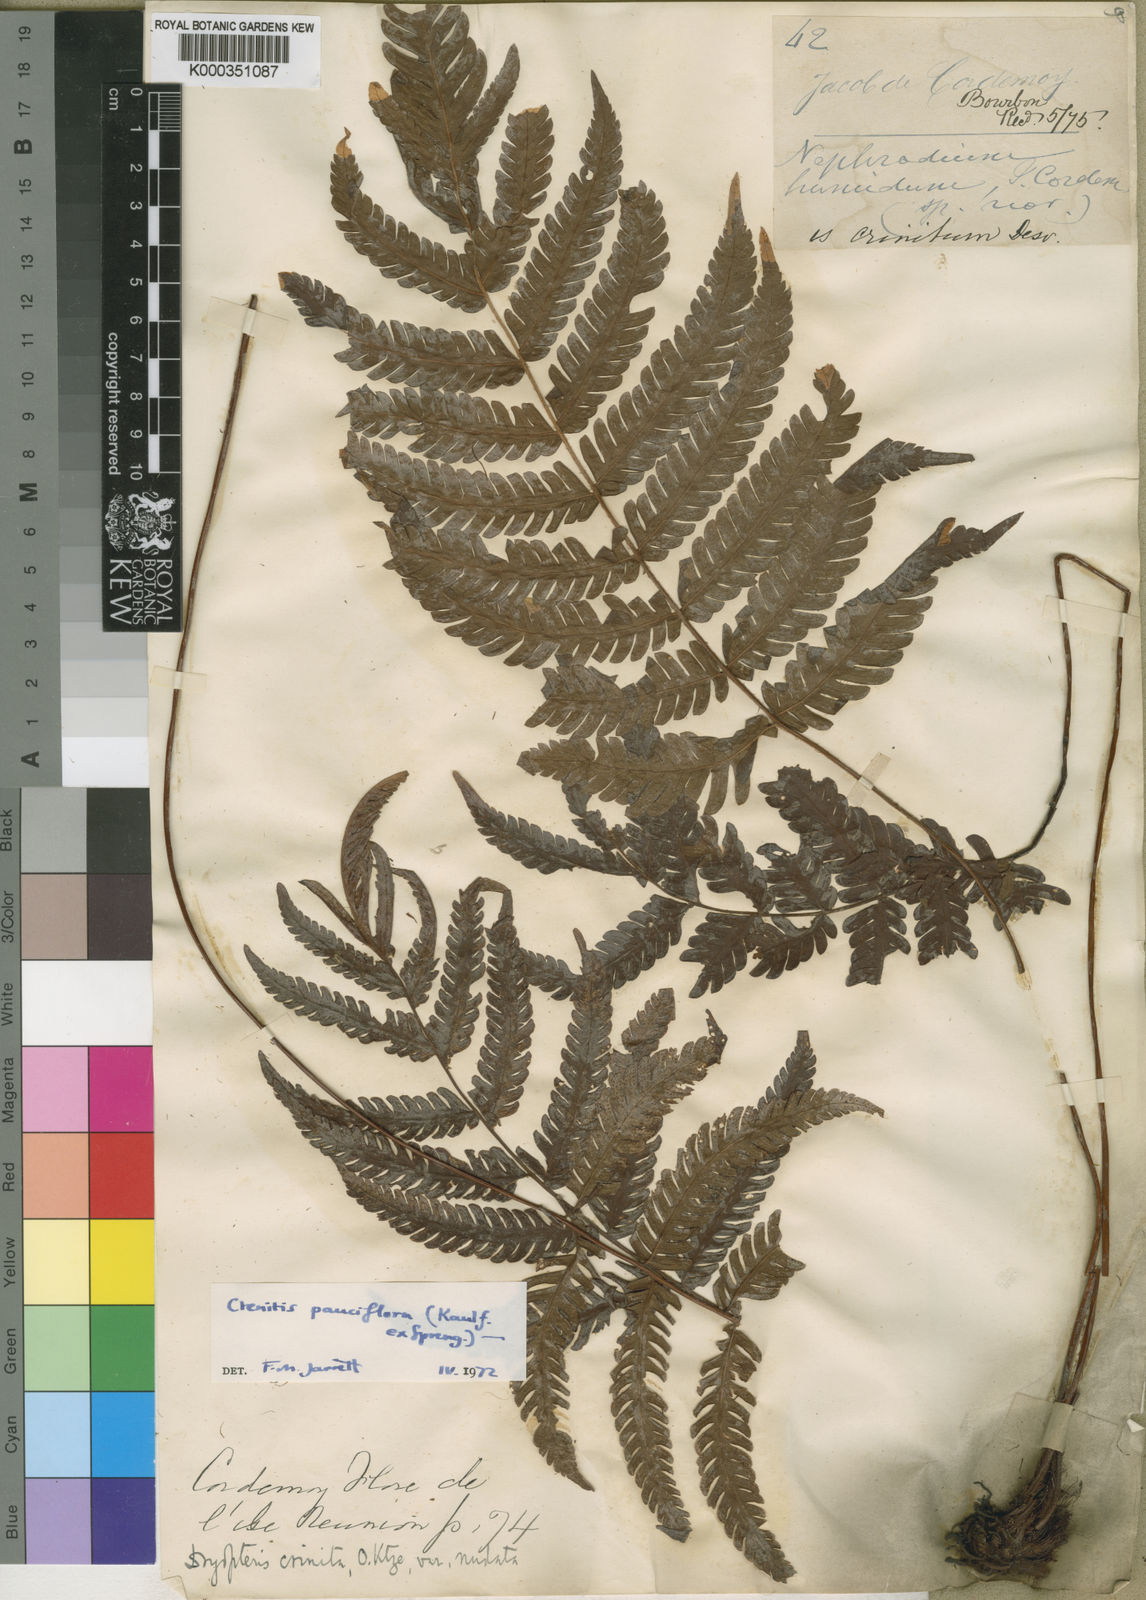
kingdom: Plantae
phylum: Tracheophyta
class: Polypodiopsida
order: Polypodiales
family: Dryopteridaceae
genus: Ctenitis
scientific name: Ctenitis pauciflora
